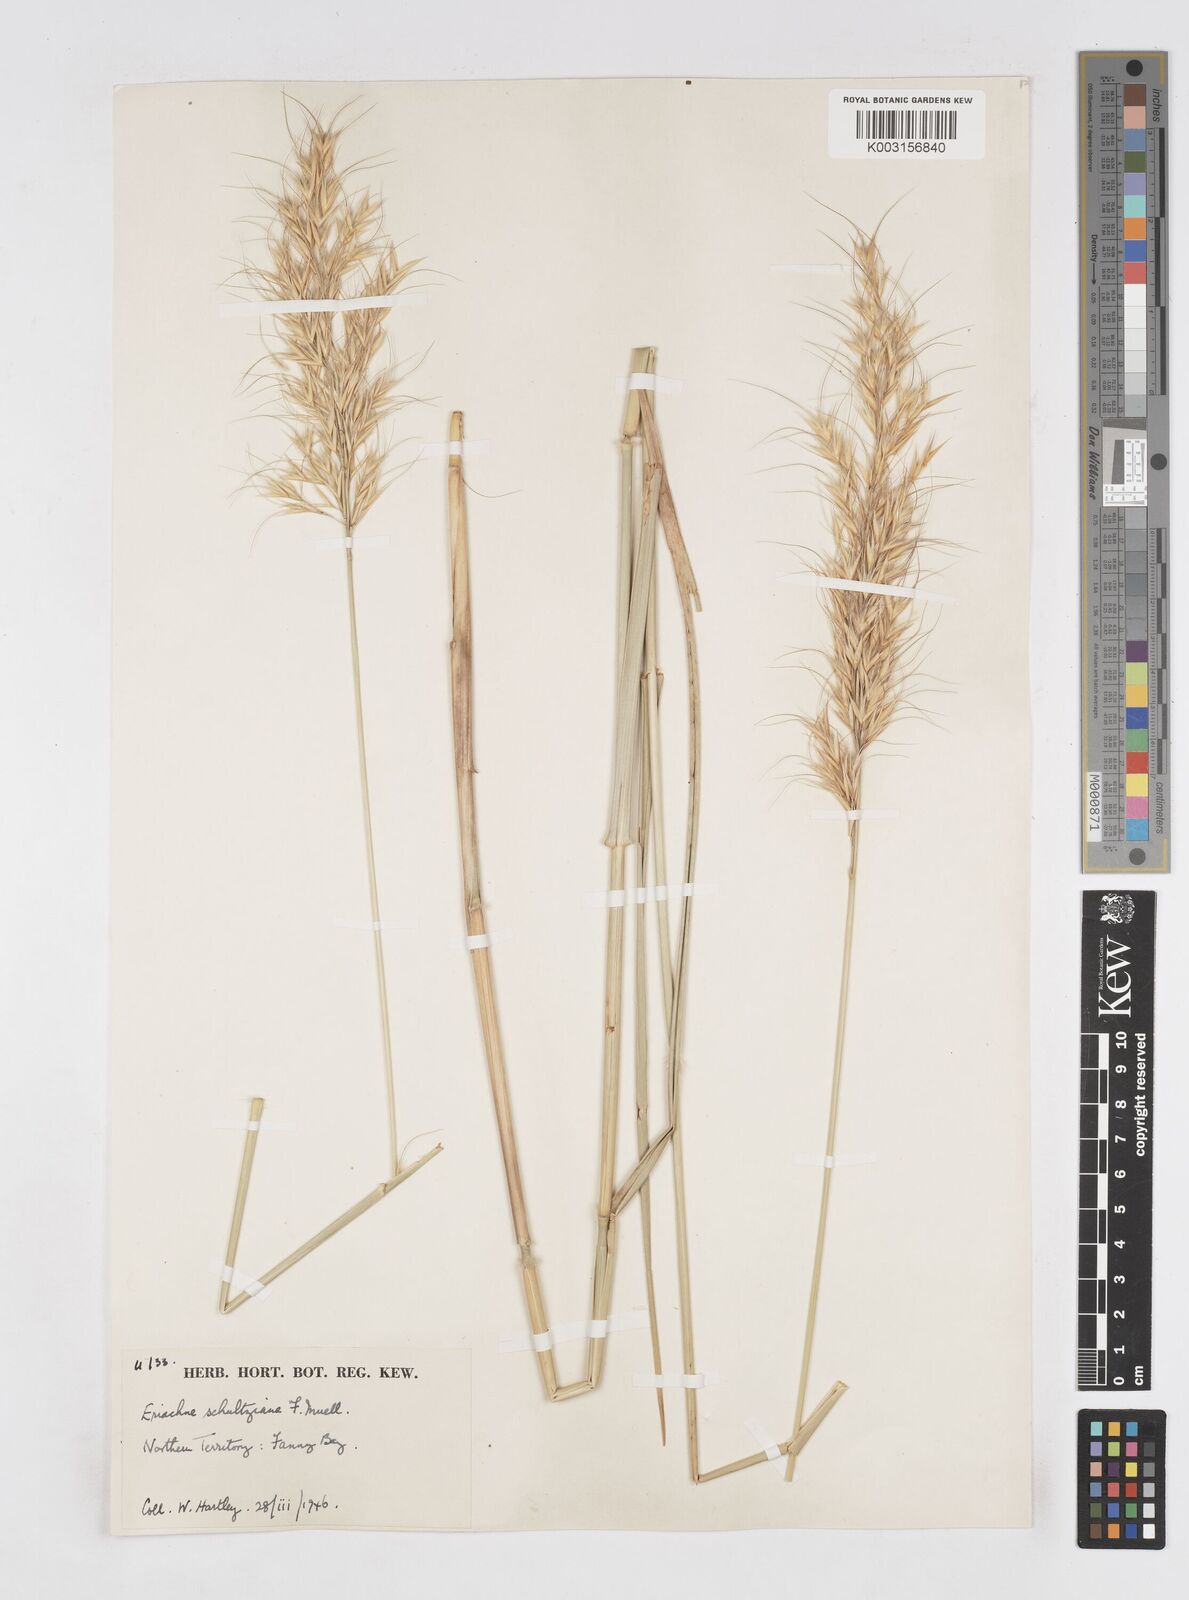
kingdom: Plantae
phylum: Tracheophyta
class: Liliopsida
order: Poales
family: Poaceae
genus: Eriachne
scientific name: Eriachne schultziana
